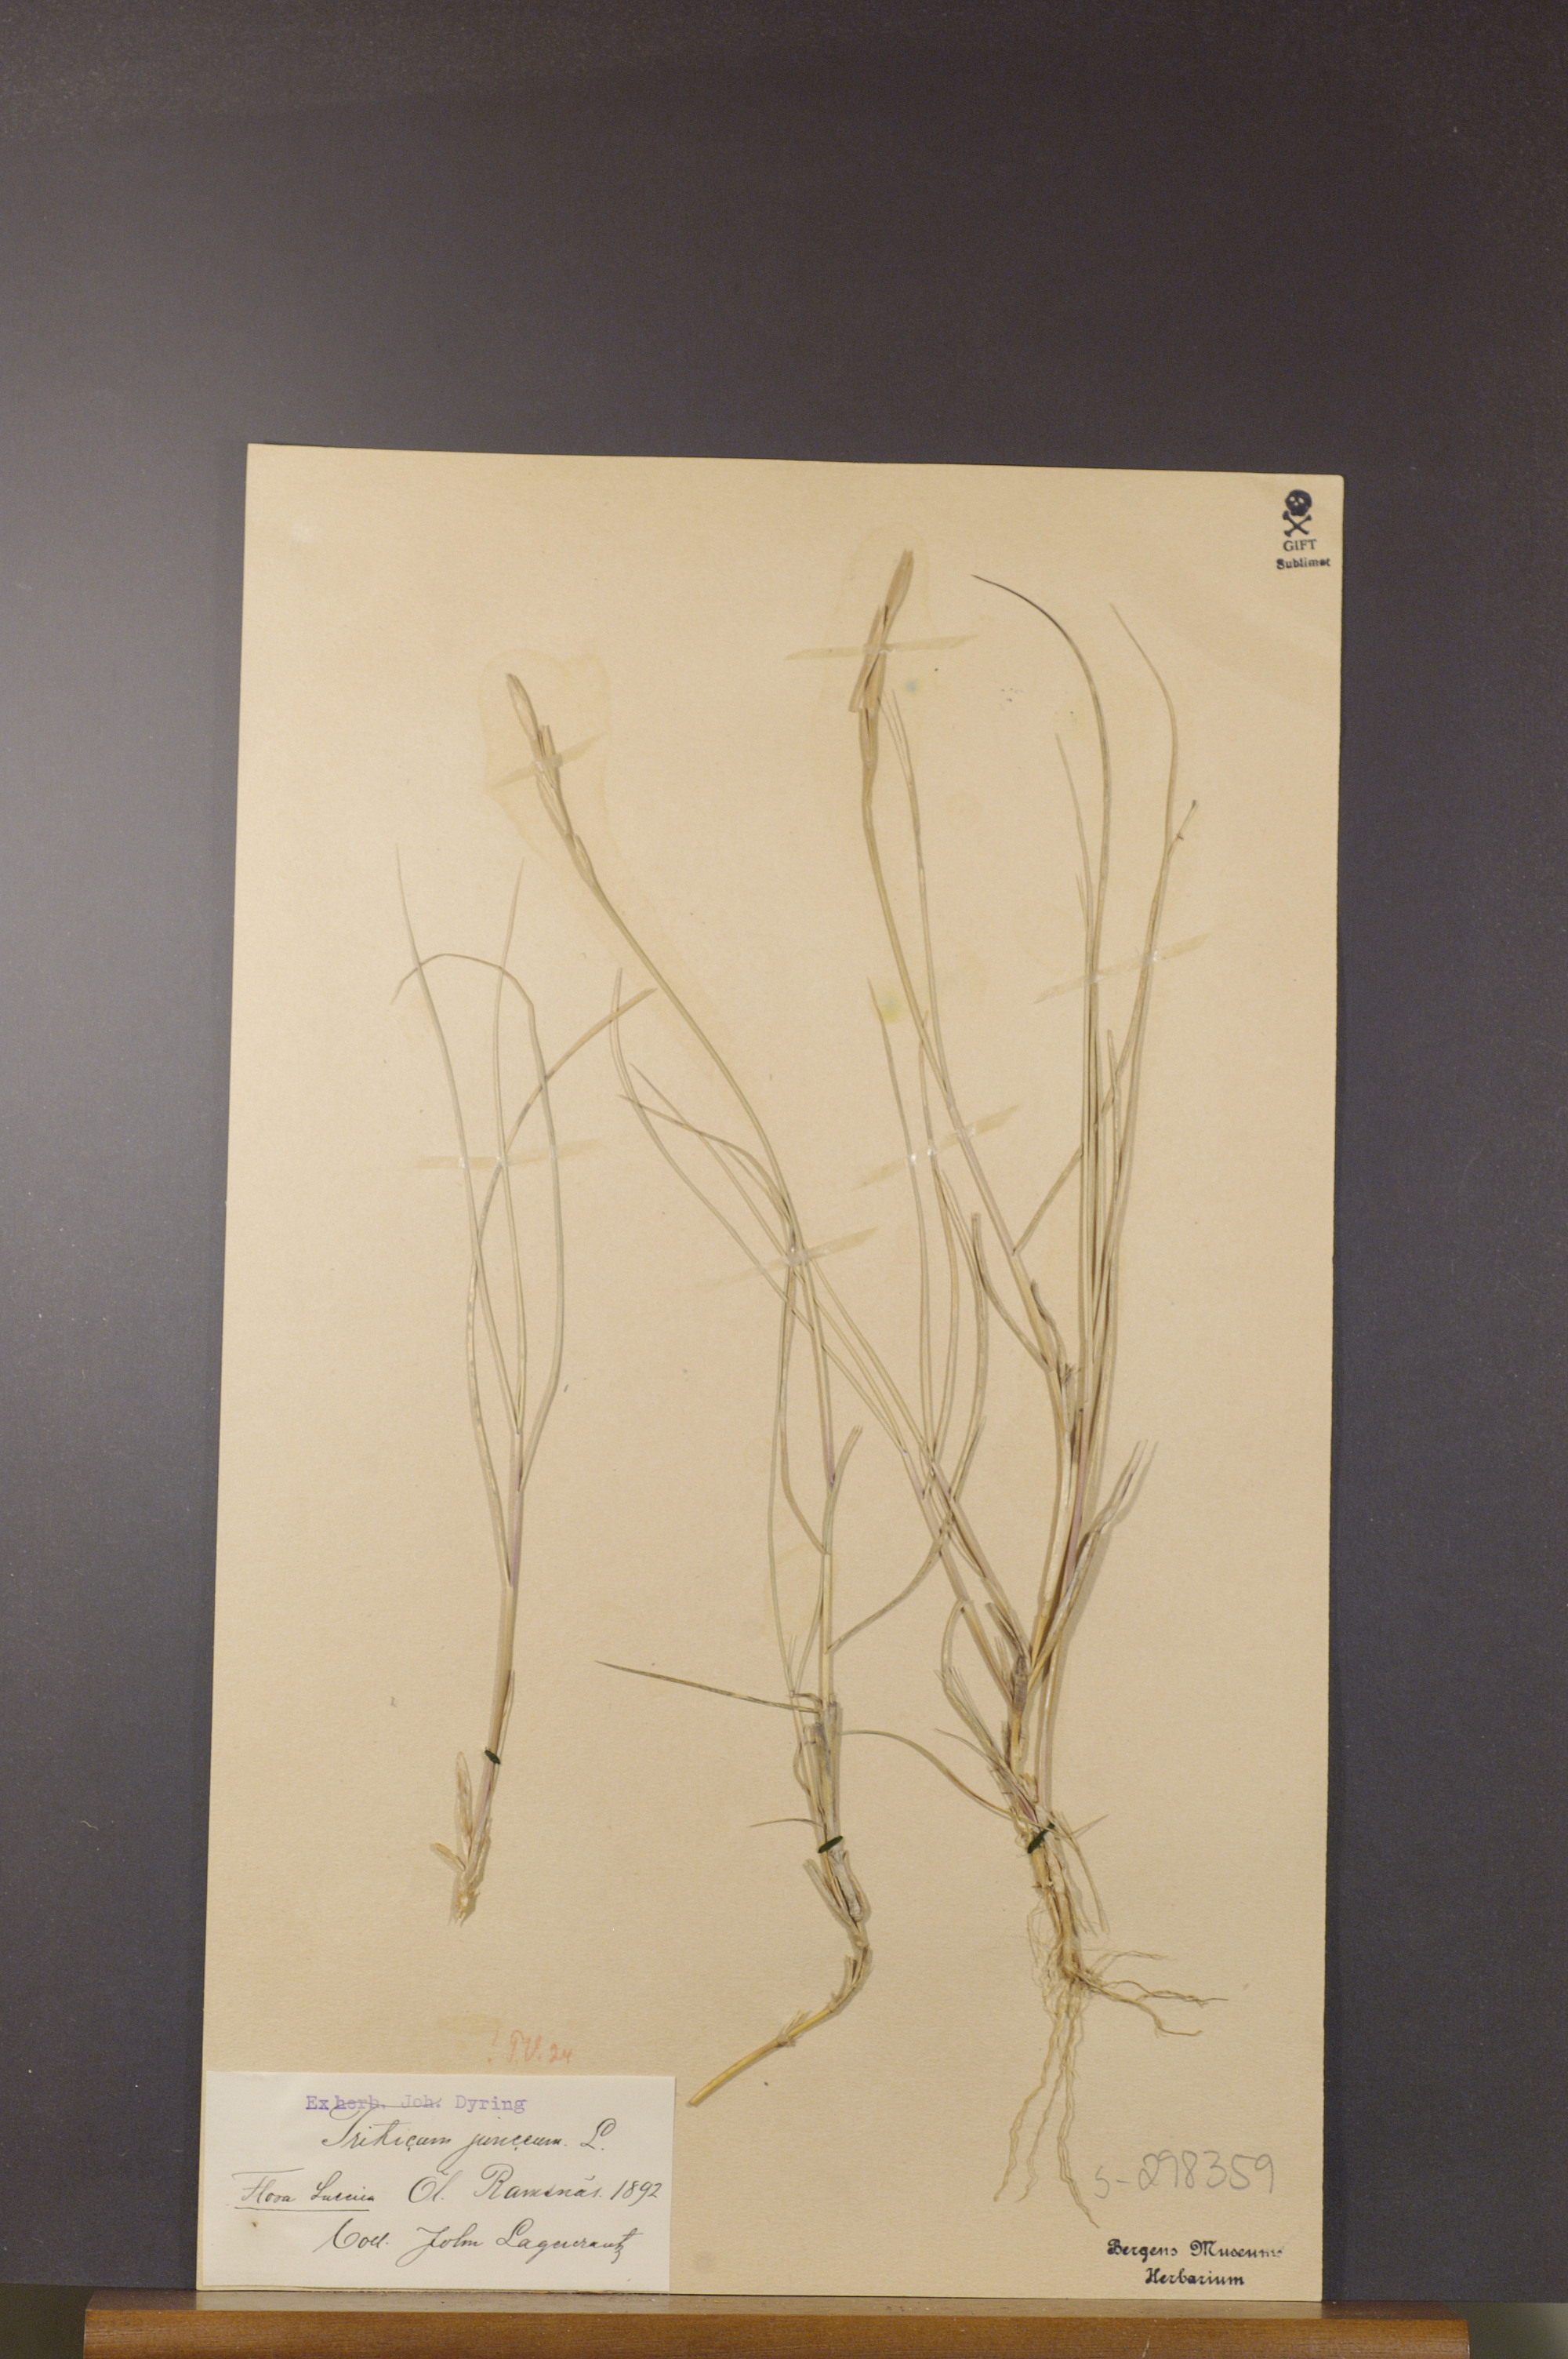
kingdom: Plantae
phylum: Tracheophyta
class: Liliopsida
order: Poales
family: Poaceae
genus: Thinopyrum
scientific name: Thinopyrum junceum
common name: Russian wheatgrass
